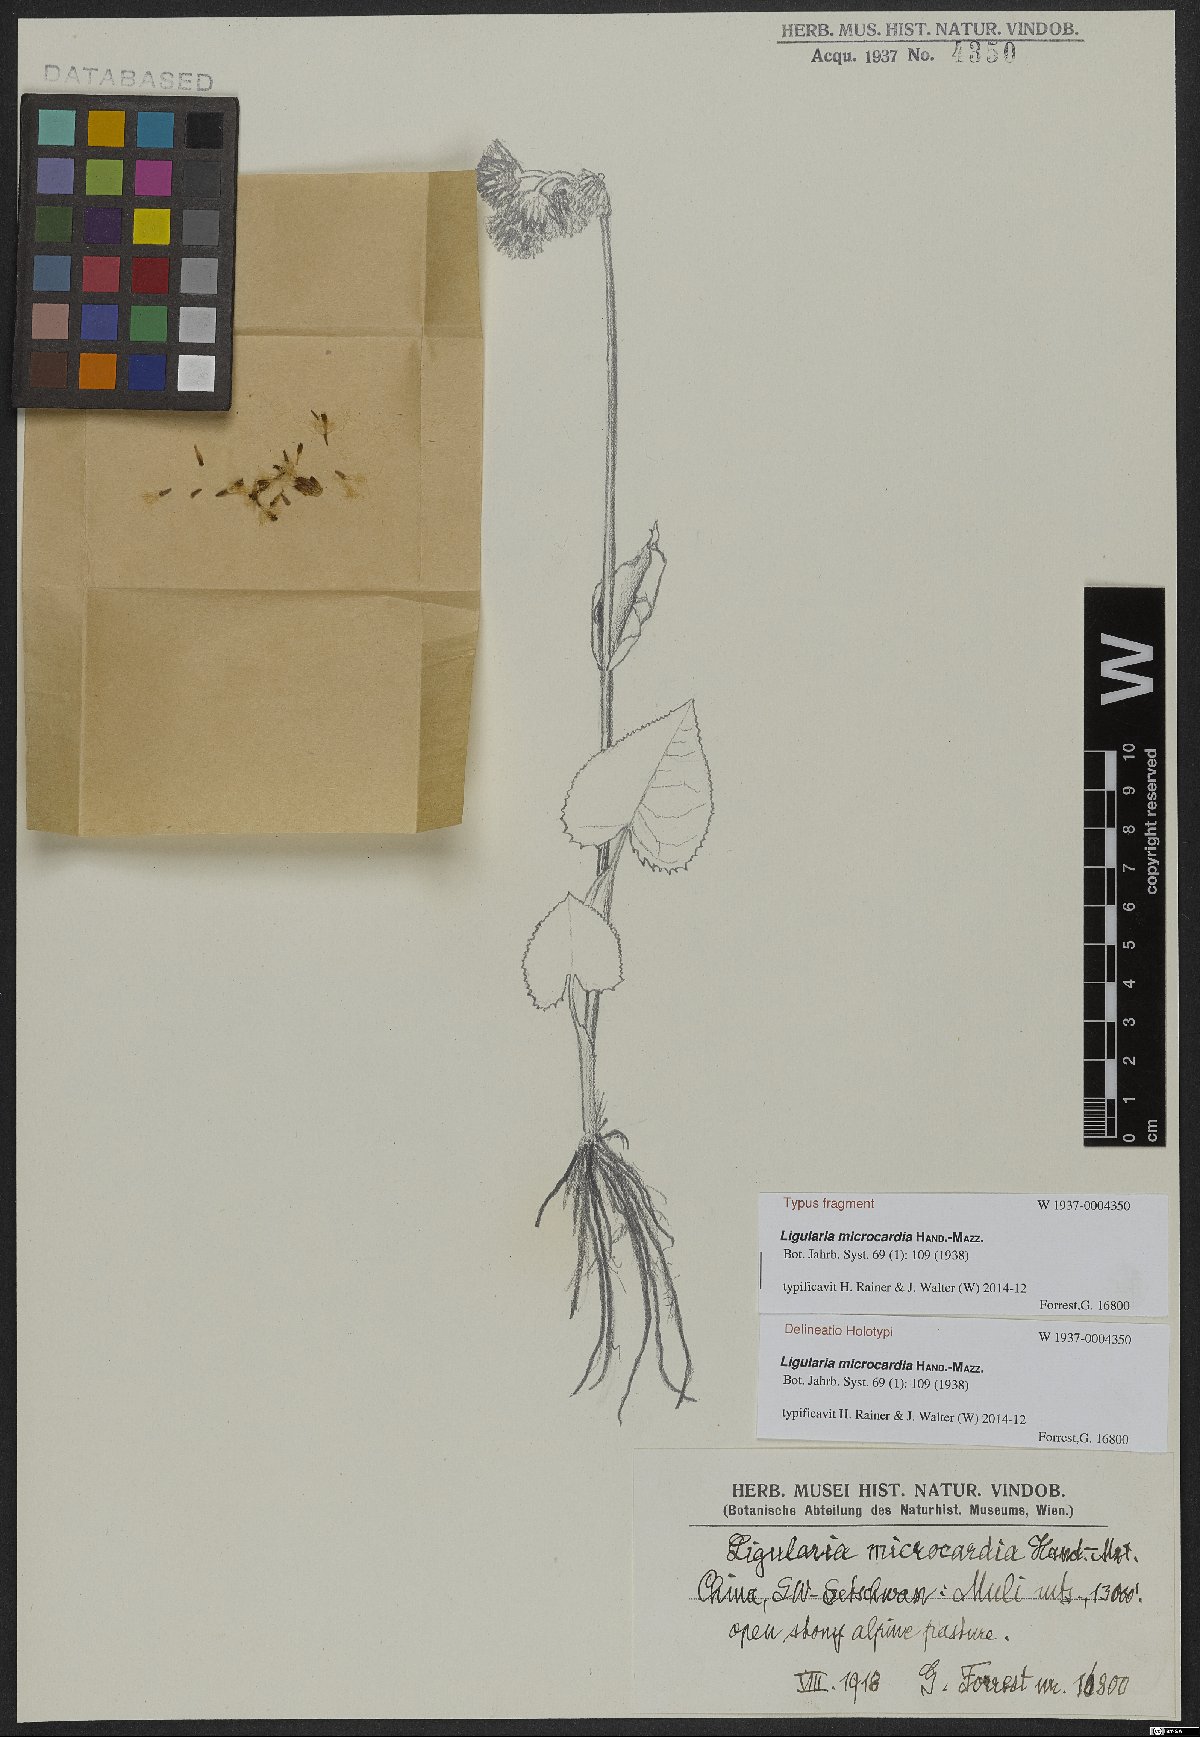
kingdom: Plantae
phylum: Tracheophyta
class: Magnoliopsida
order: Asterales
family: Asteraceae
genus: Ligularia
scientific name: Ligularia microcardia
